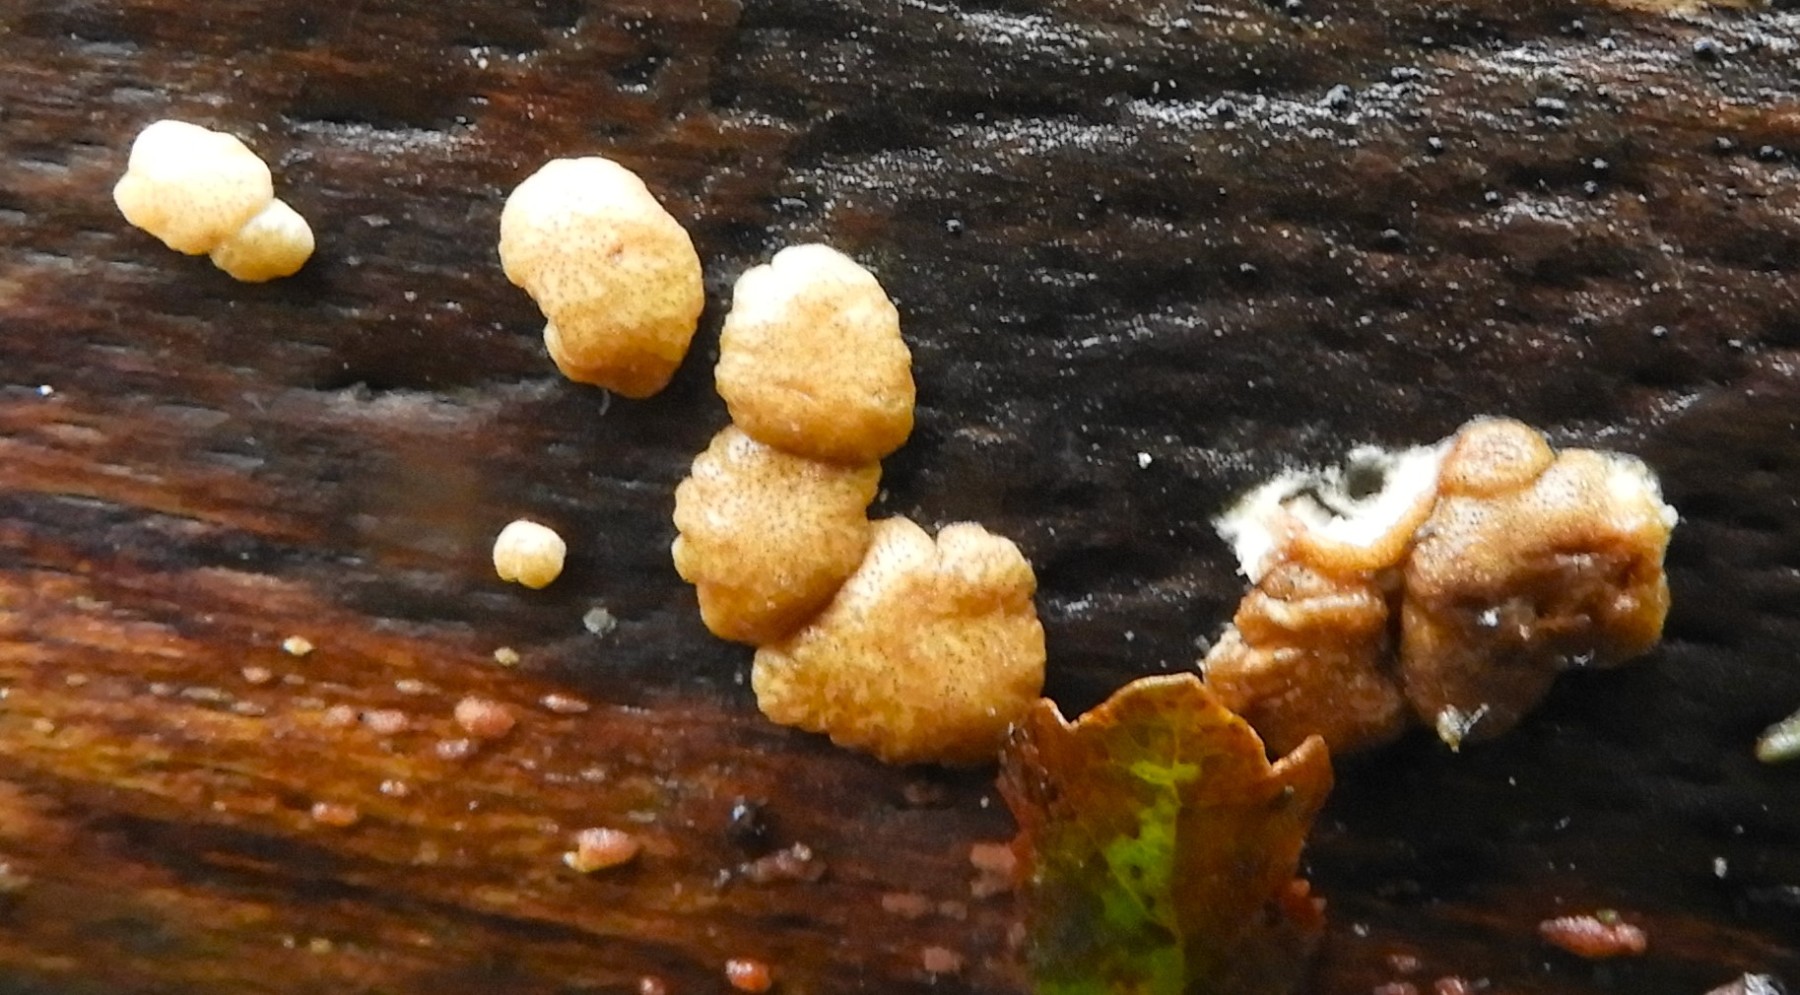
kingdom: Fungi
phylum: Ascomycota
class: Sordariomycetes
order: Hypocreales
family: Hypocreaceae
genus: Trichoderma
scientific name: Trichoderma europaeum
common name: rosabrun kødkerne
